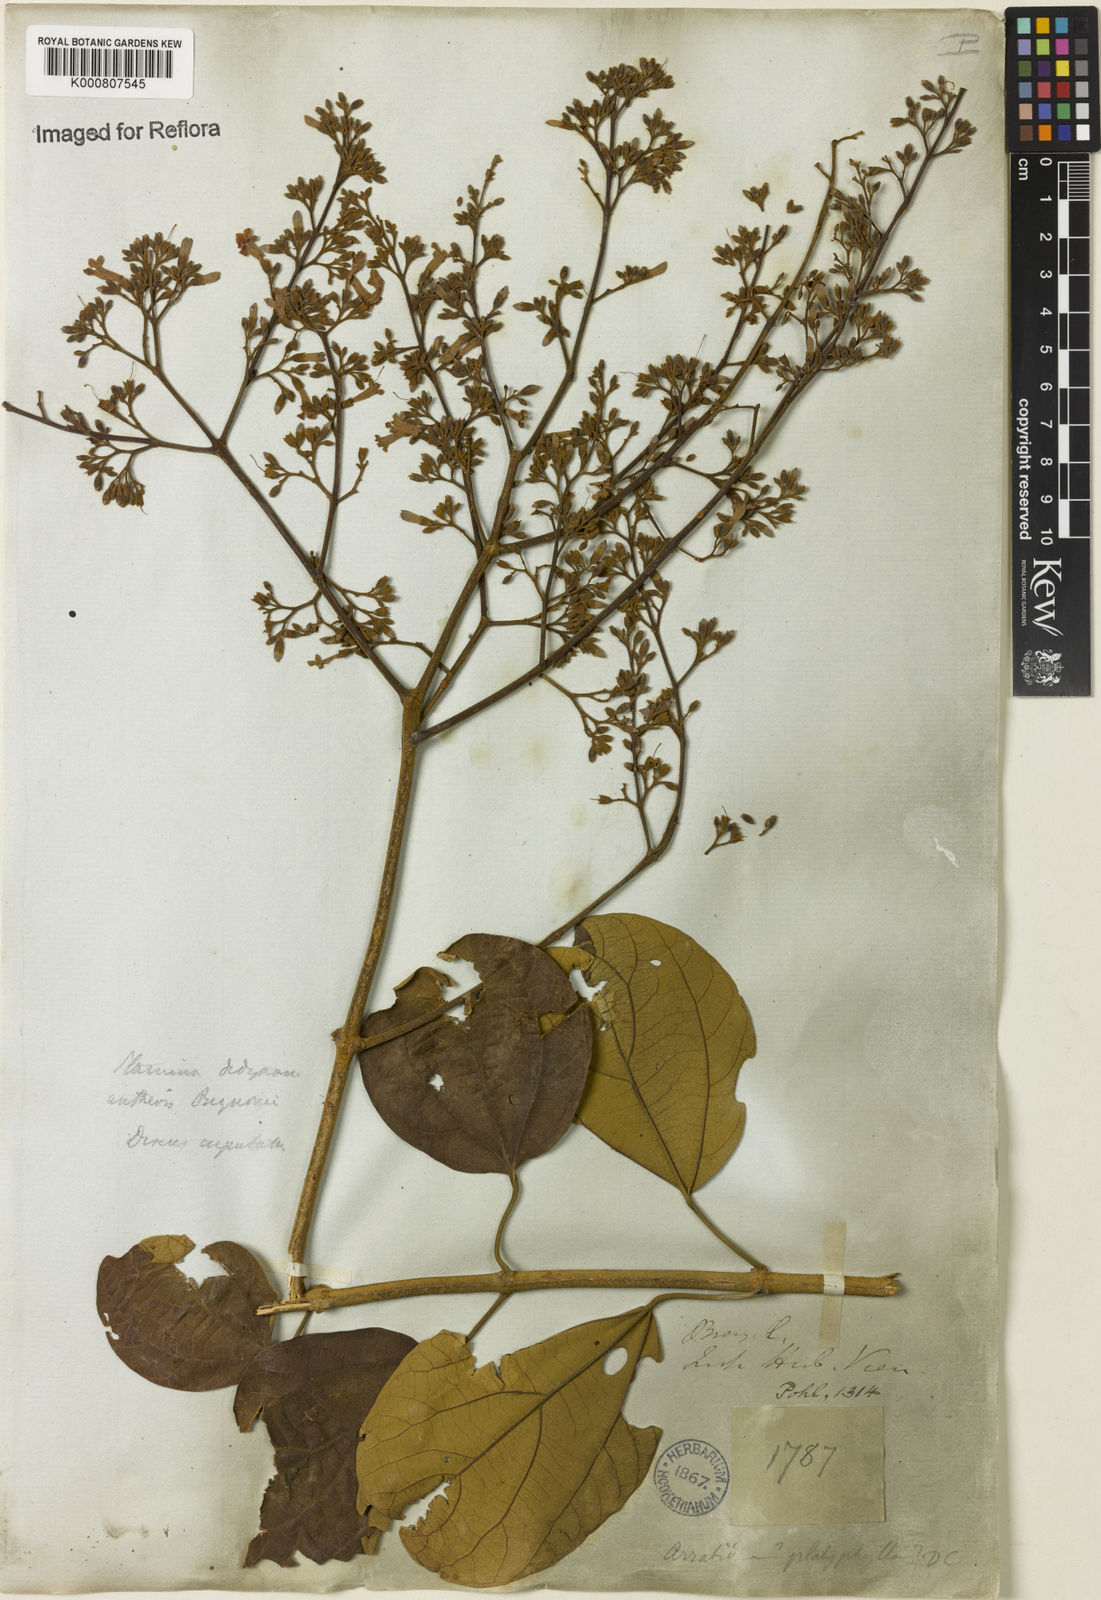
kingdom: Plantae
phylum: Tracheophyta
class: Magnoliopsida
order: Lamiales
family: Bignoniaceae
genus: Xylophragma
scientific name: Xylophragma platyphyllum
